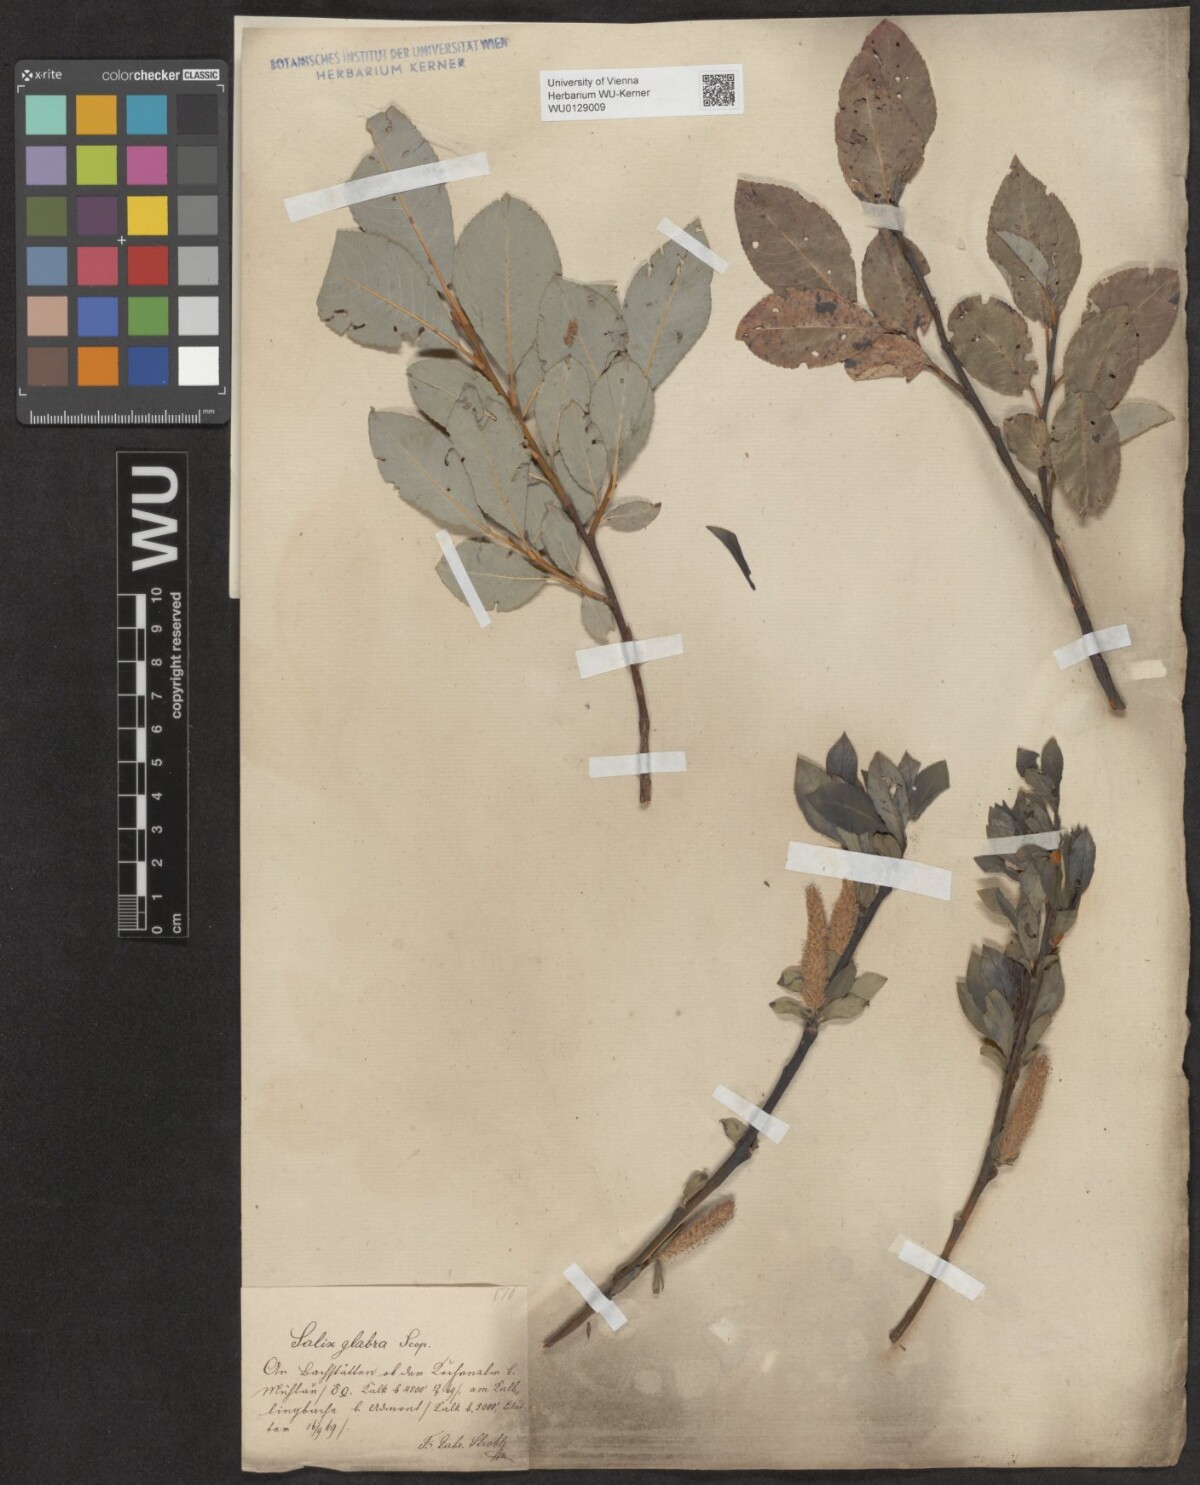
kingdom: Plantae
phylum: Tracheophyta
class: Magnoliopsida
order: Malpighiales
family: Salicaceae
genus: Salix
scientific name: Salix glabra
